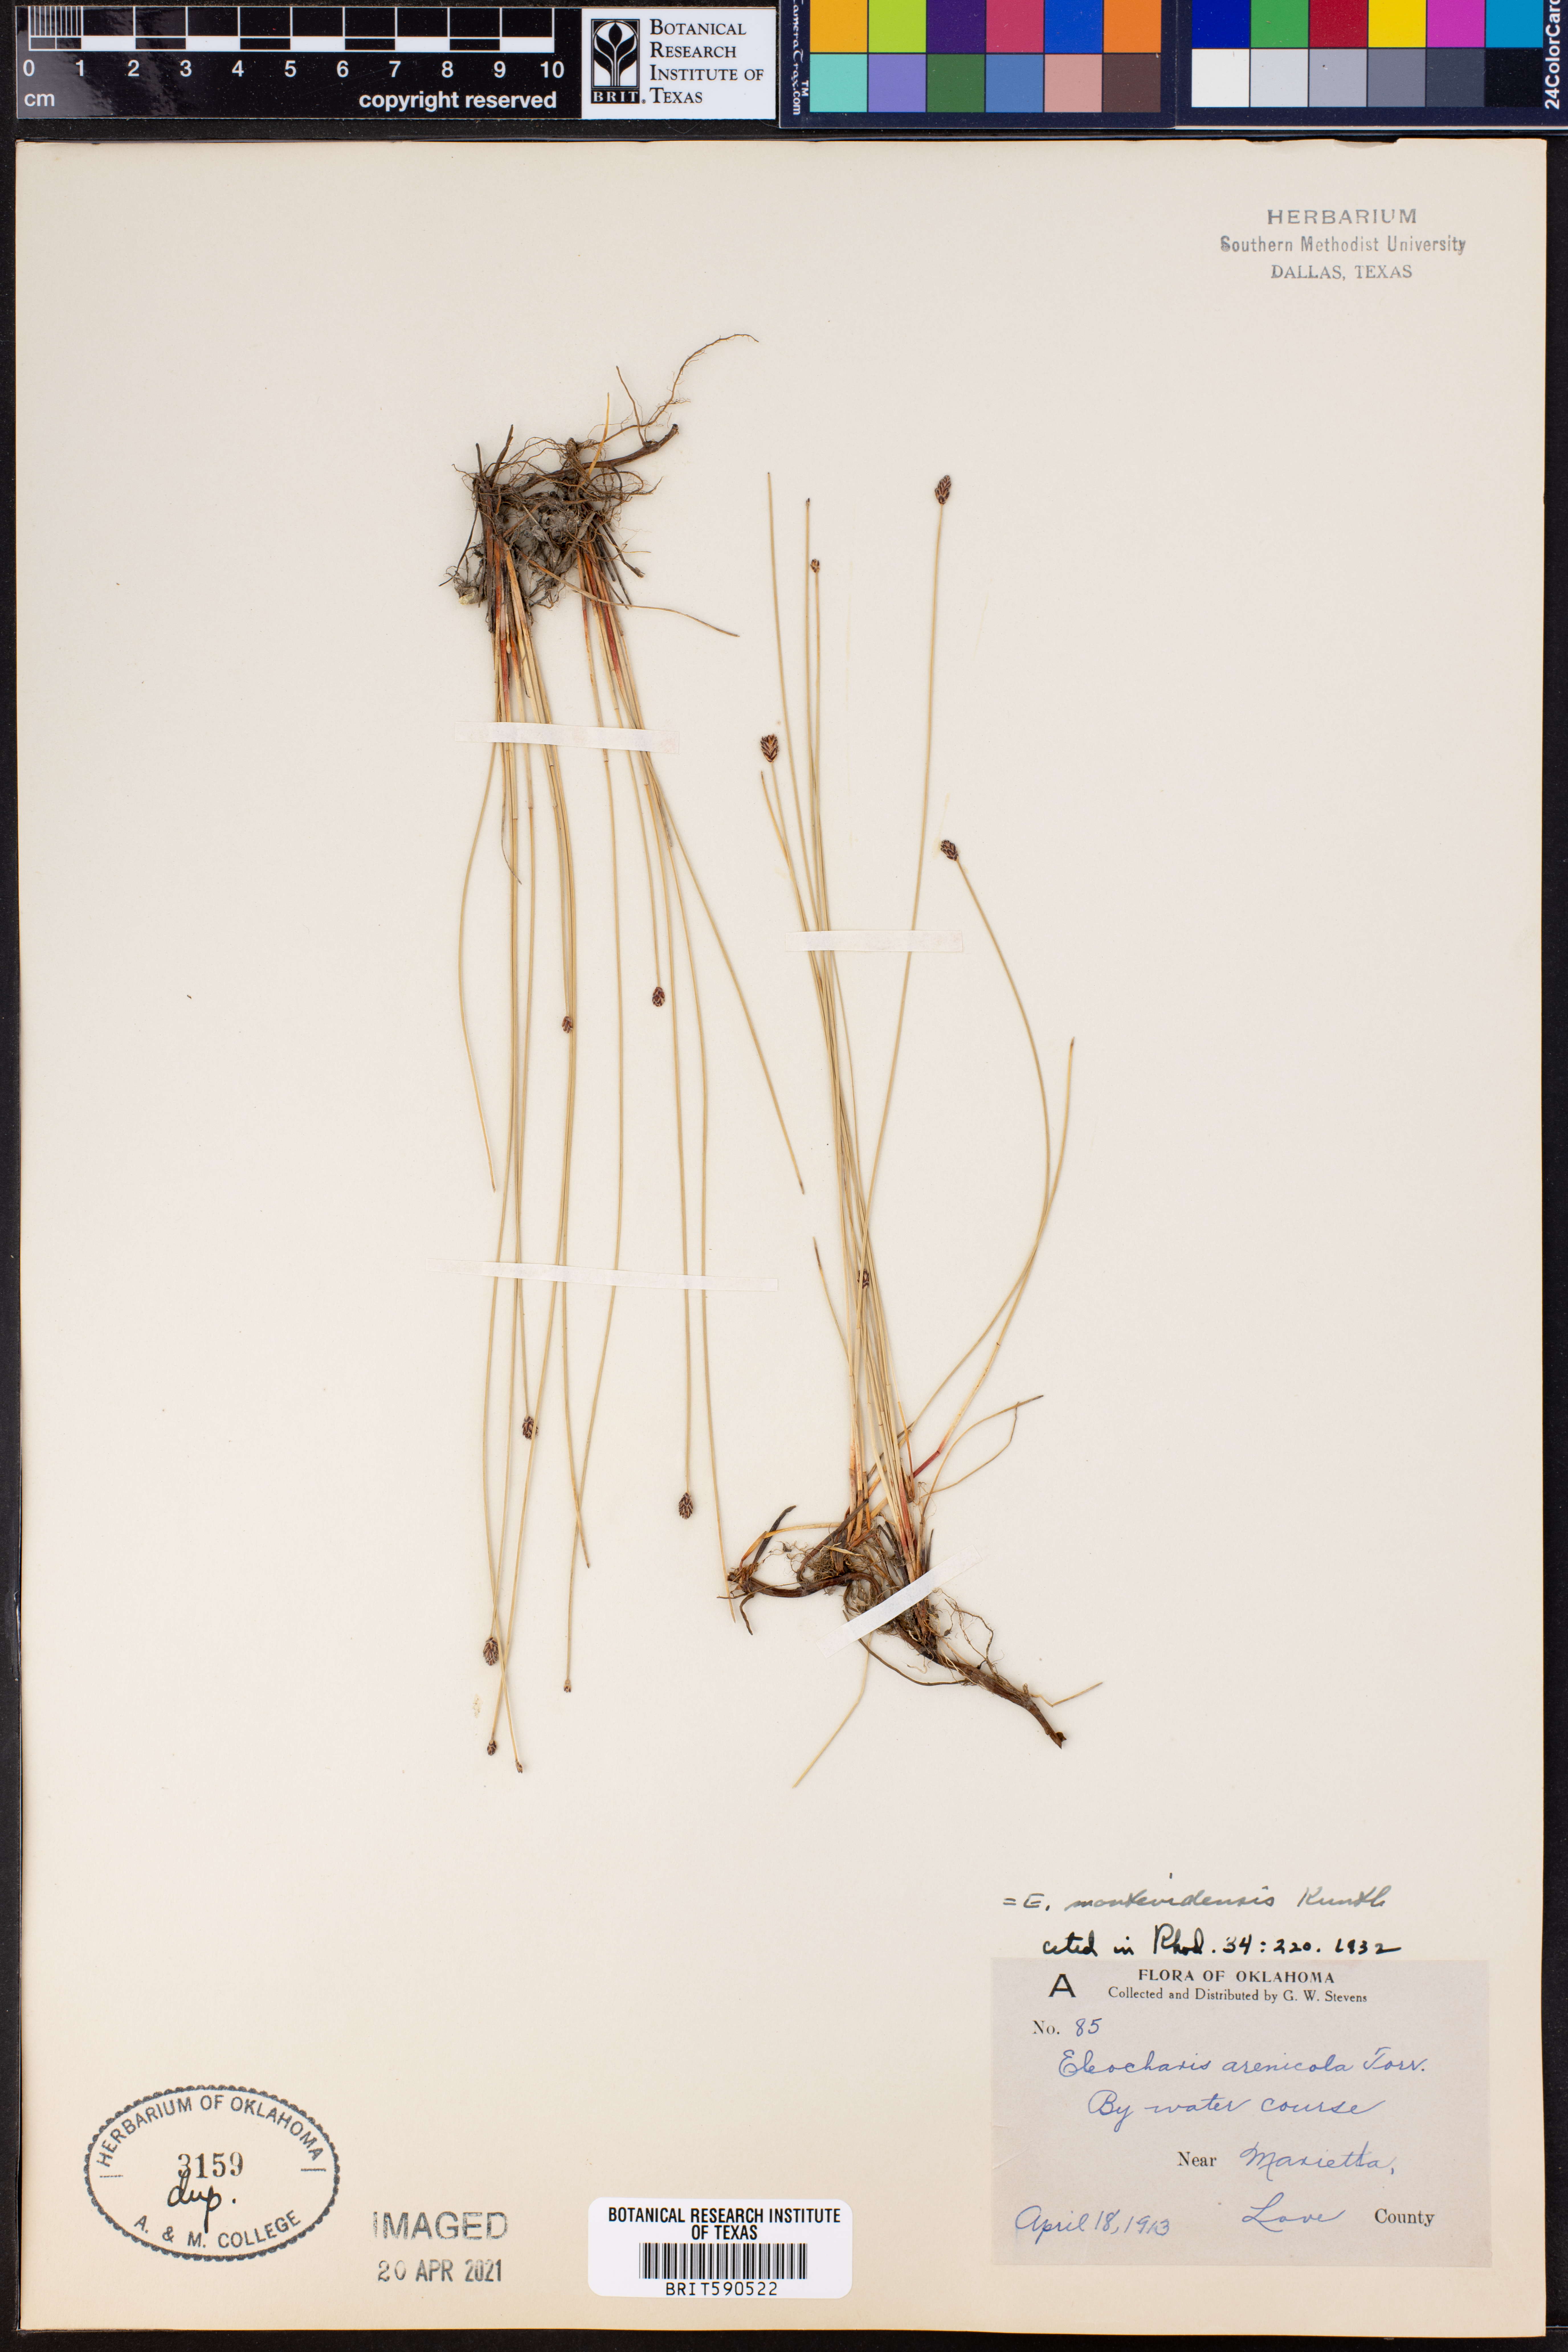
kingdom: Plantae
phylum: Tracheophyta
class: Liliopsida
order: Poales
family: Cyperaceae
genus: Eleocharis
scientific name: Eleocharis montevidensis
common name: Sand spike-rush
